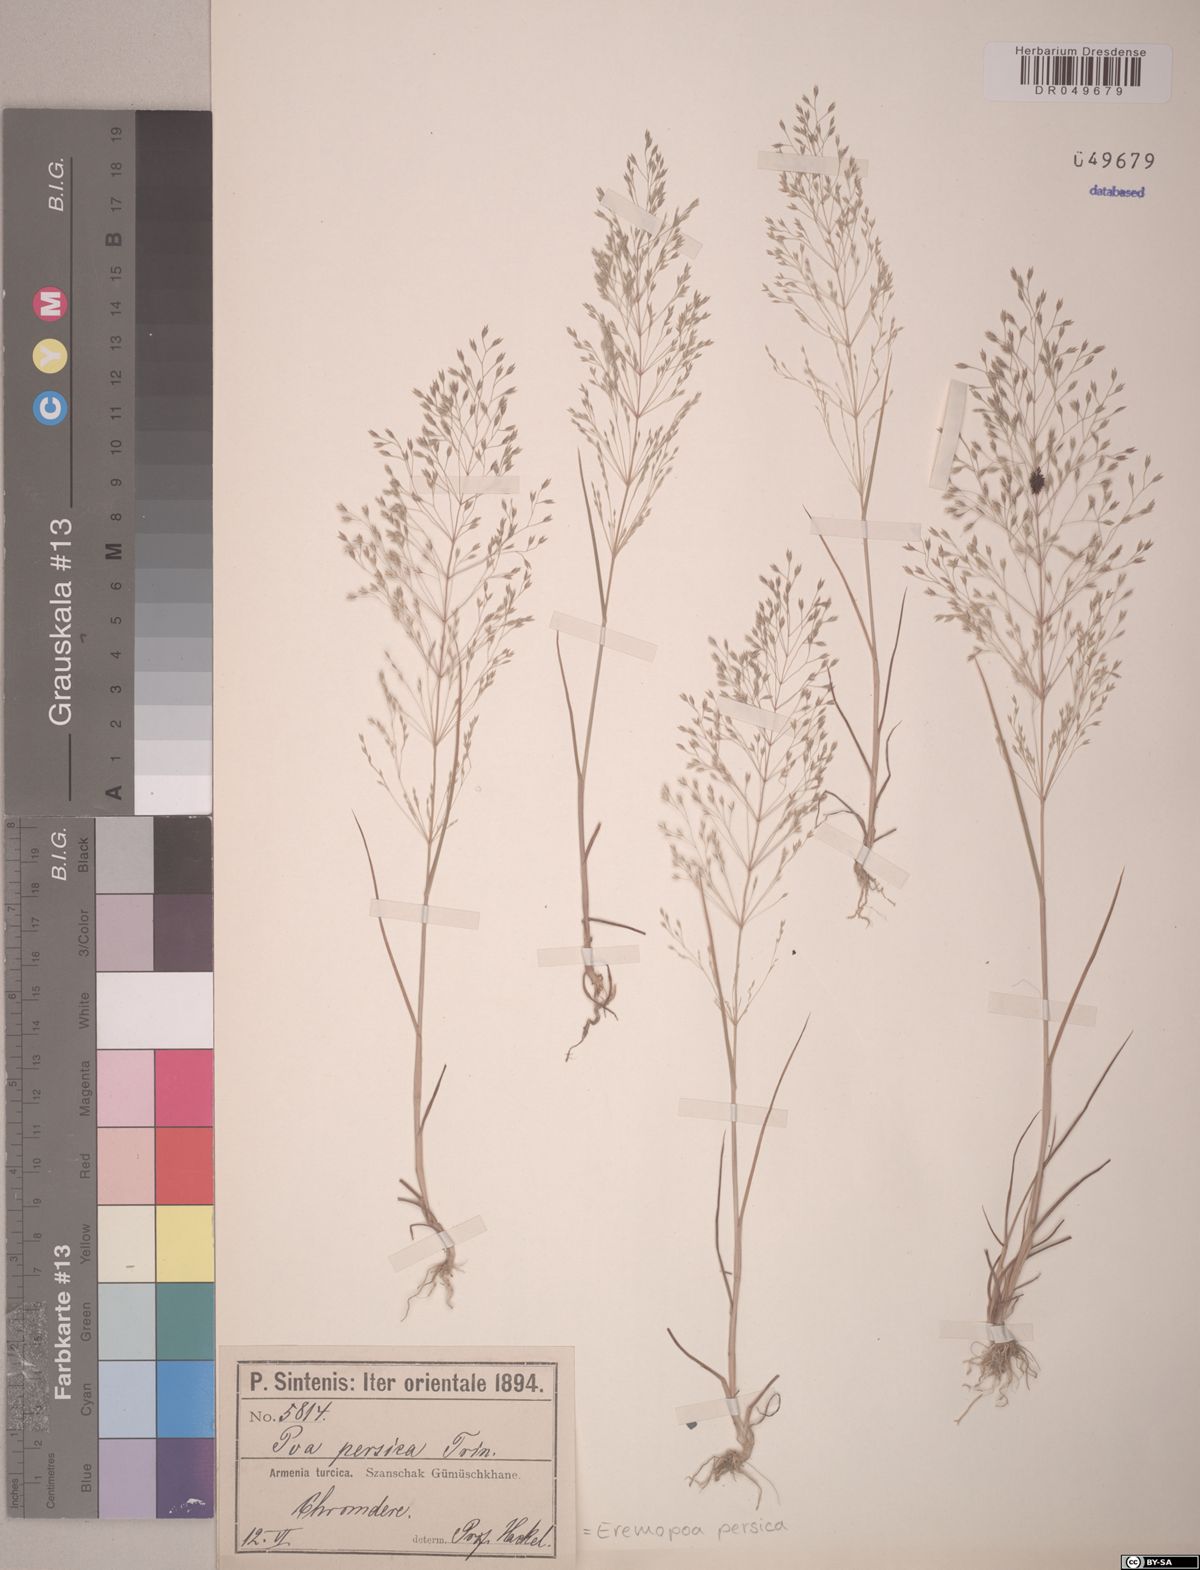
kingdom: Plantae
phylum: Tracheophyta
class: Liliopsida
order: Poales
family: Poaceae
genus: Poa
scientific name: Poa persica
